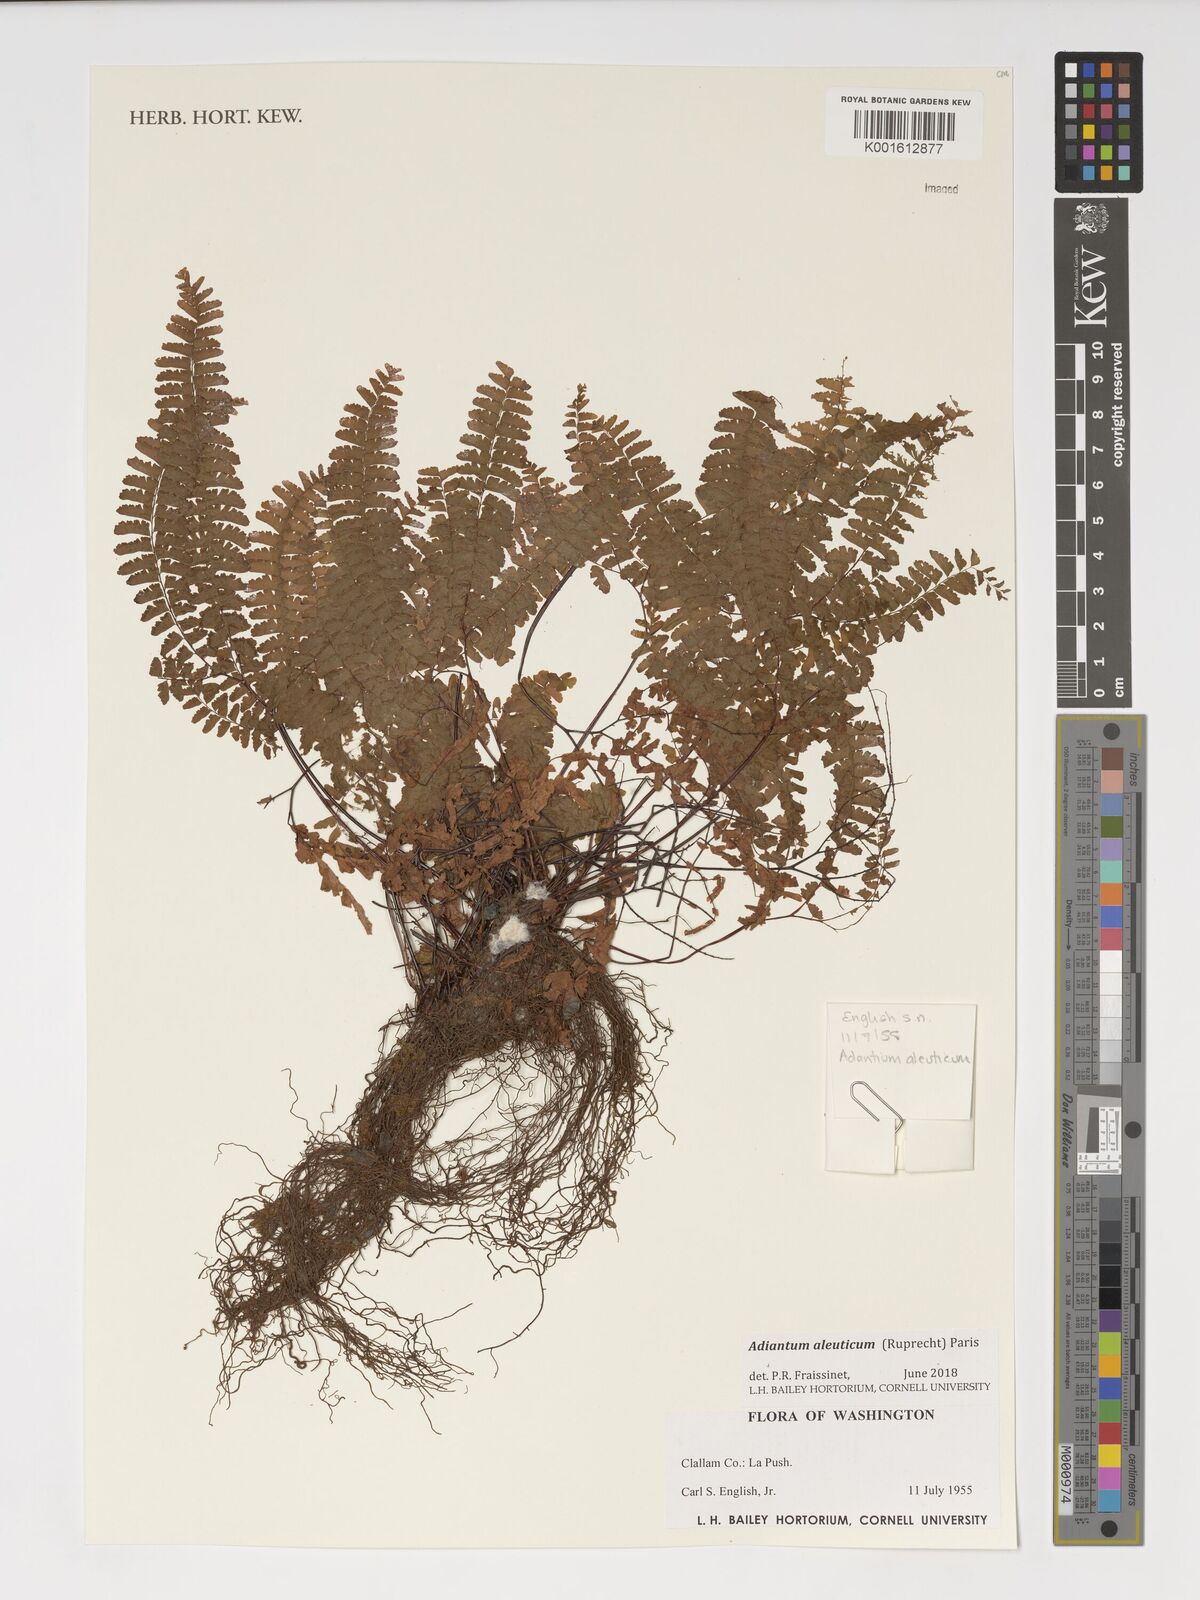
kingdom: Plantae
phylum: Tracheophyta
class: Polypodiopsida
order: Polypodiales
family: Pteridaceae
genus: Adiantum
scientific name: Adiantum aleuticum
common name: Aleutian maidenhair fern
